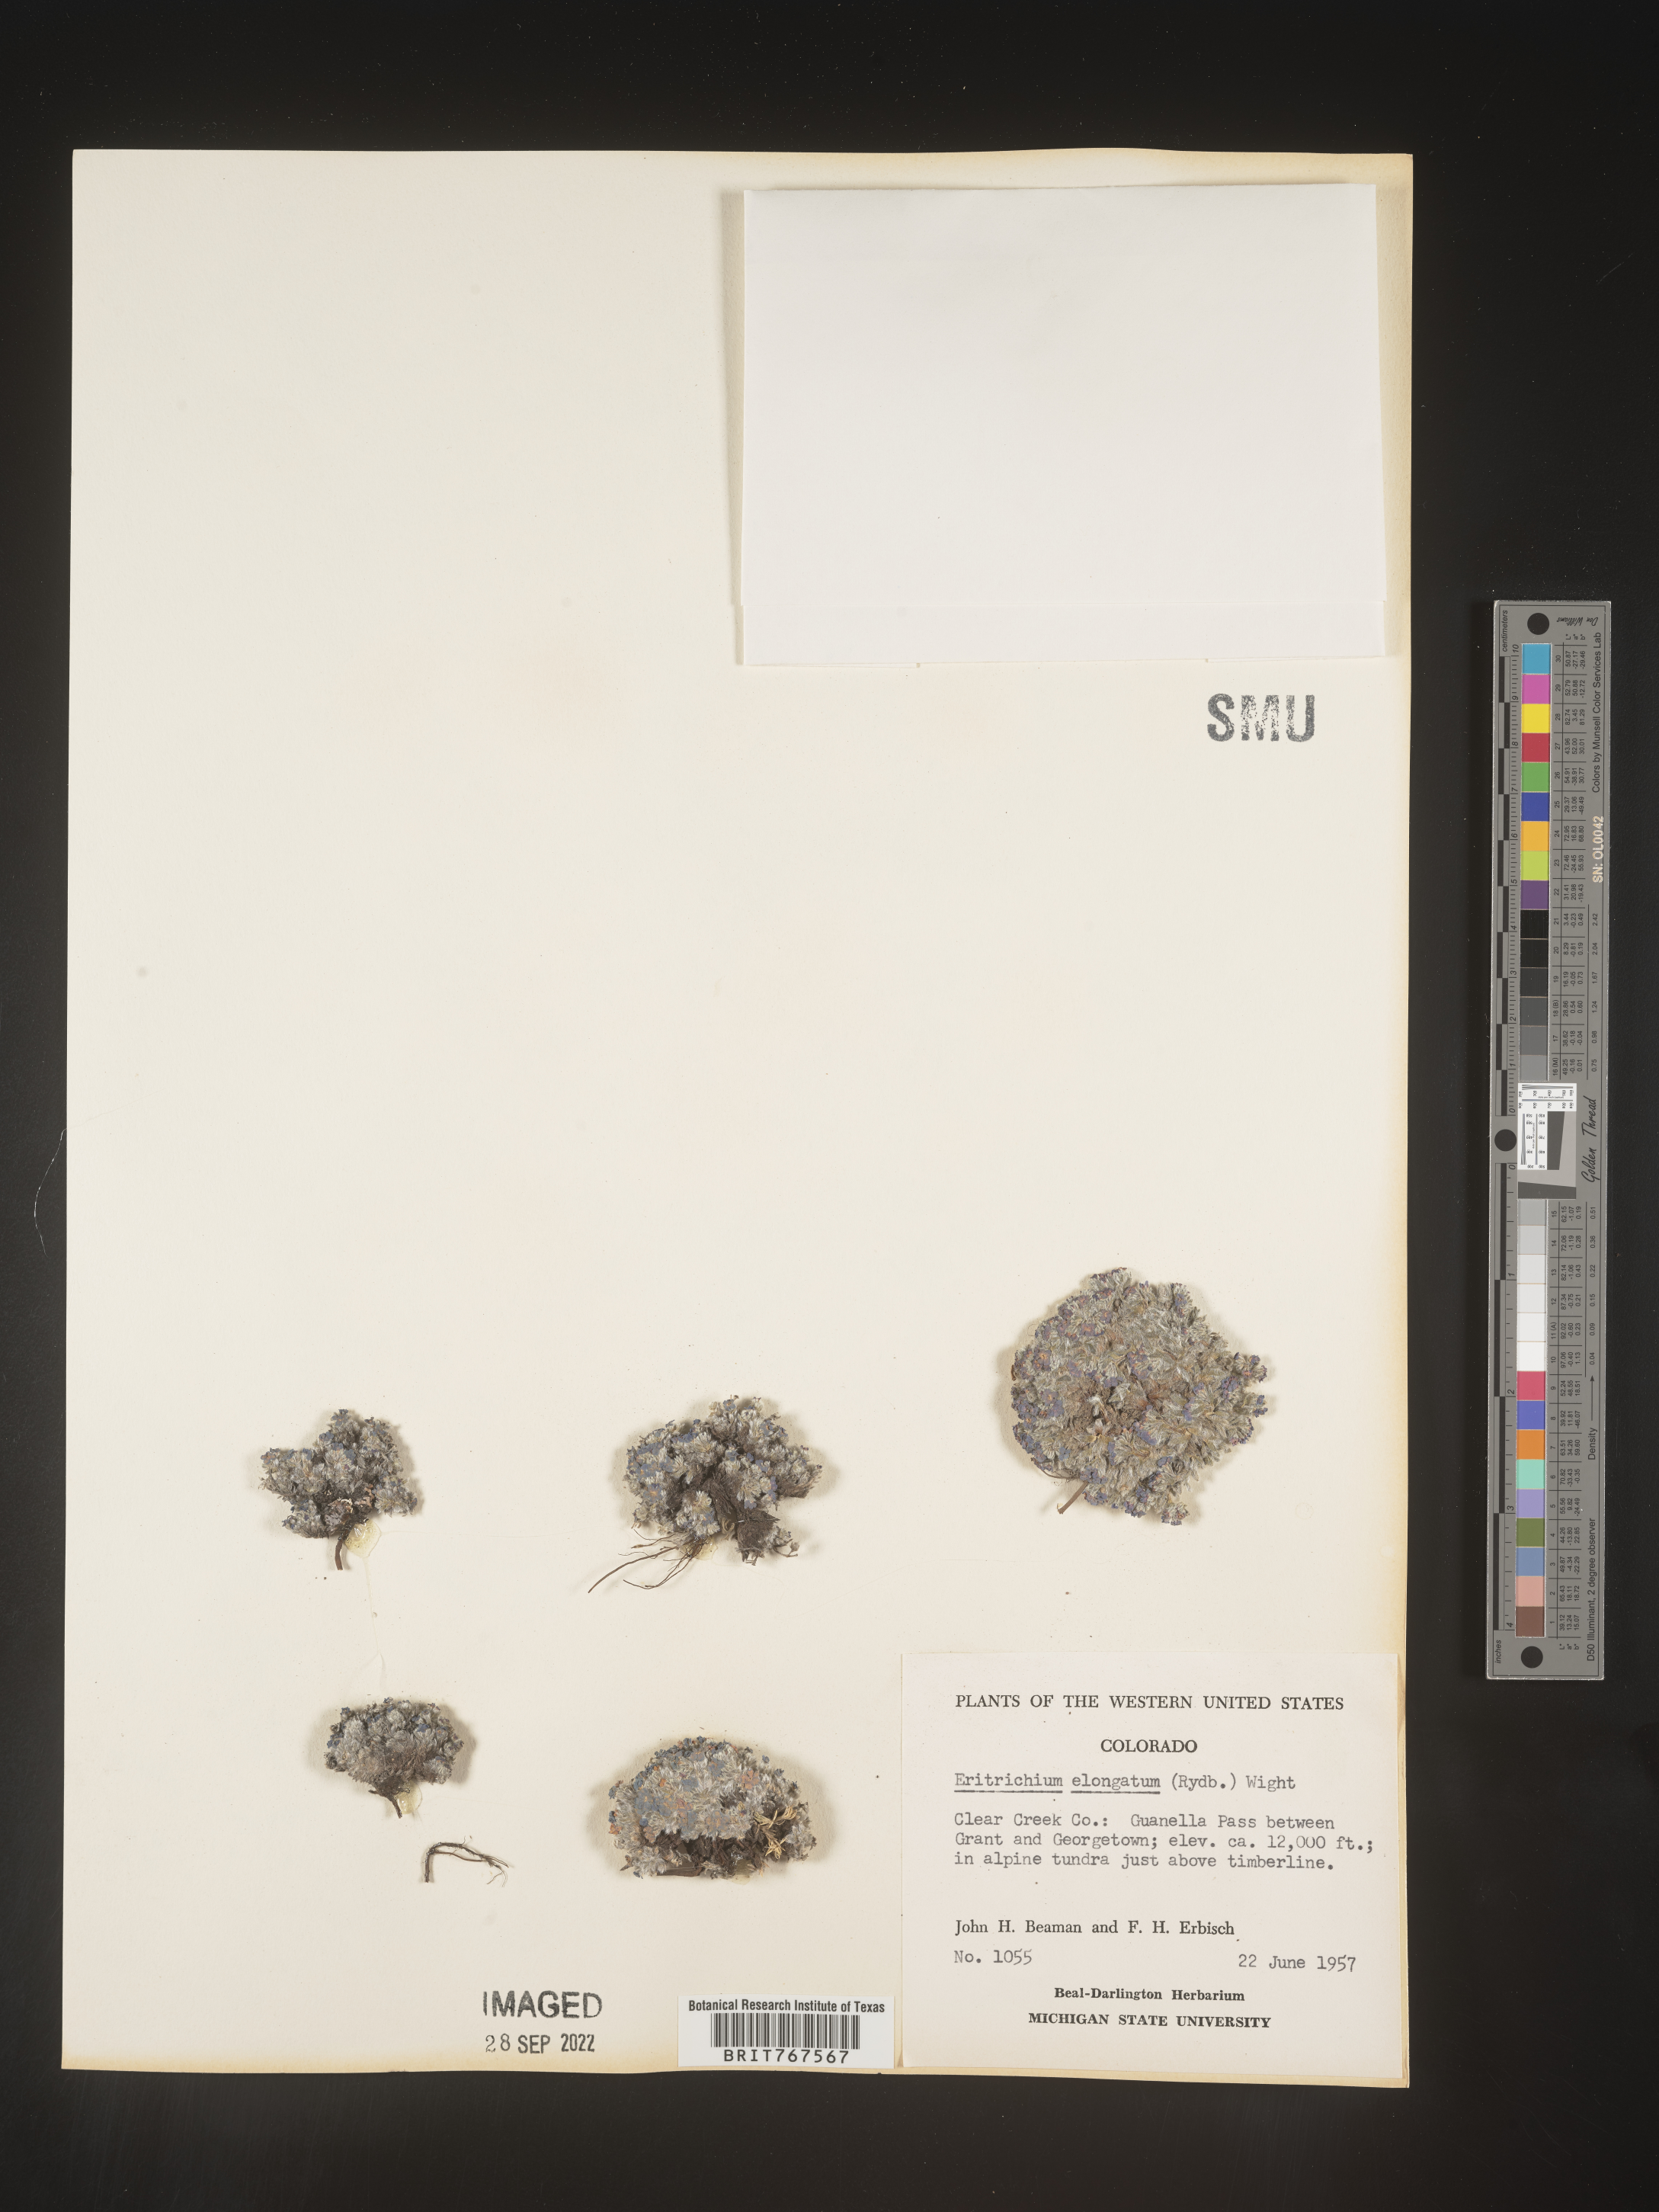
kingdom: Plantae
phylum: Tracheophyta
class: Magnoliopsida
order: Boraginales
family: Boraginaceae
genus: Eritrichium
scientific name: Eritrichium
